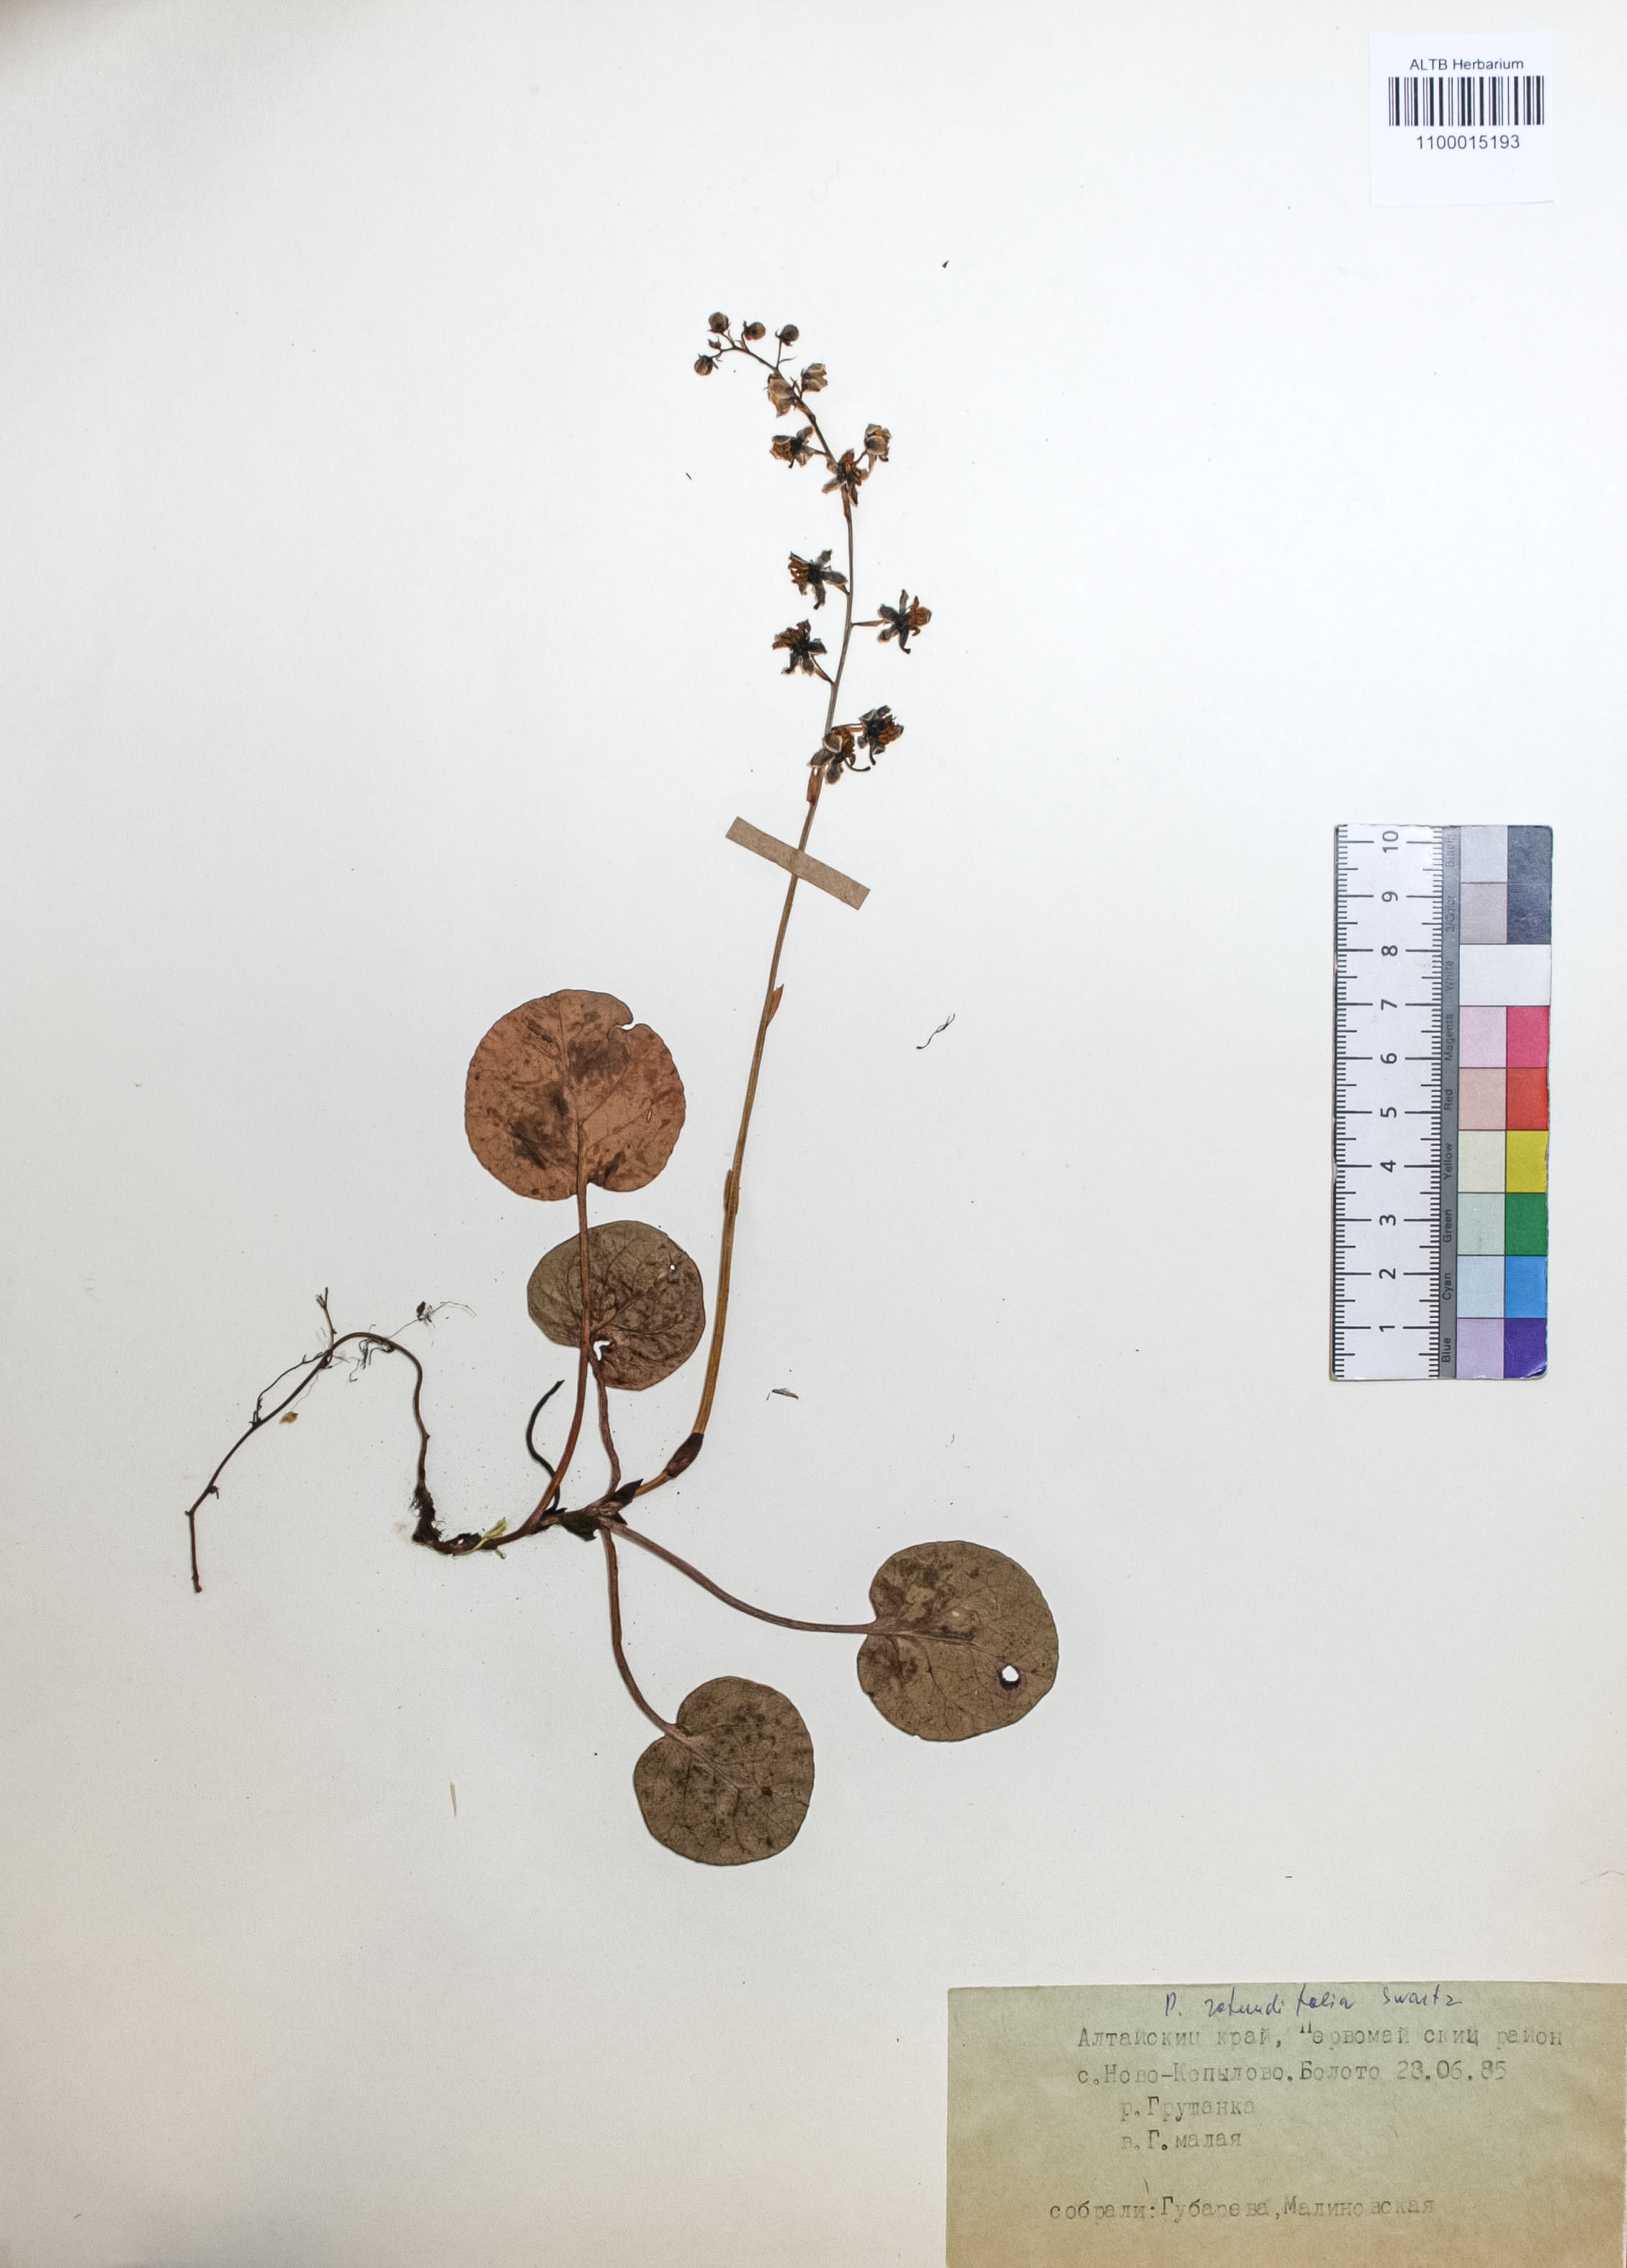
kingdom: Plantae
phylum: Tracheophyta
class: Magnoliopsida
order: Ericales
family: Ericaceae
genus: Pyrola
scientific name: Pyrola rotundifolia
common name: Round-leaved wintergreen
